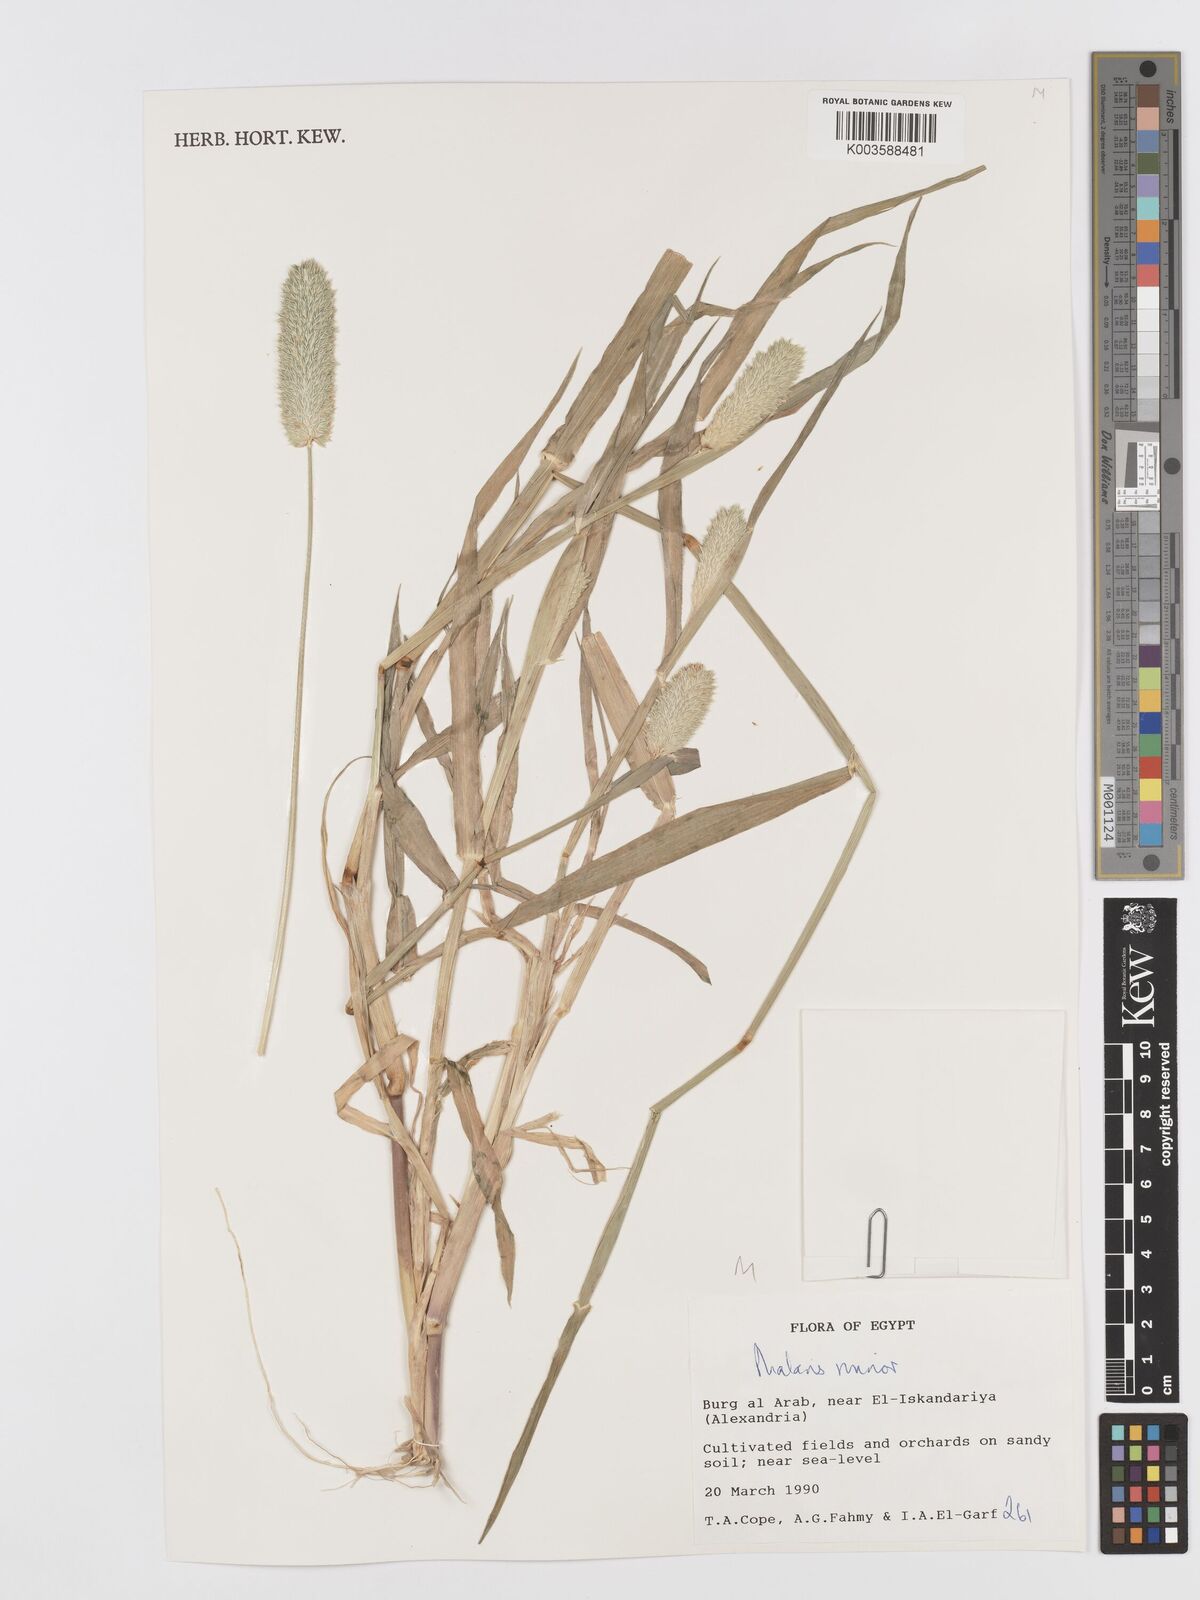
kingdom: Plantae
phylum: Tracheophyta
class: Liliopsida
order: Poales
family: Poaceae
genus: Phalaris
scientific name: Phalaris minor
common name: Littleseed canarygrass
